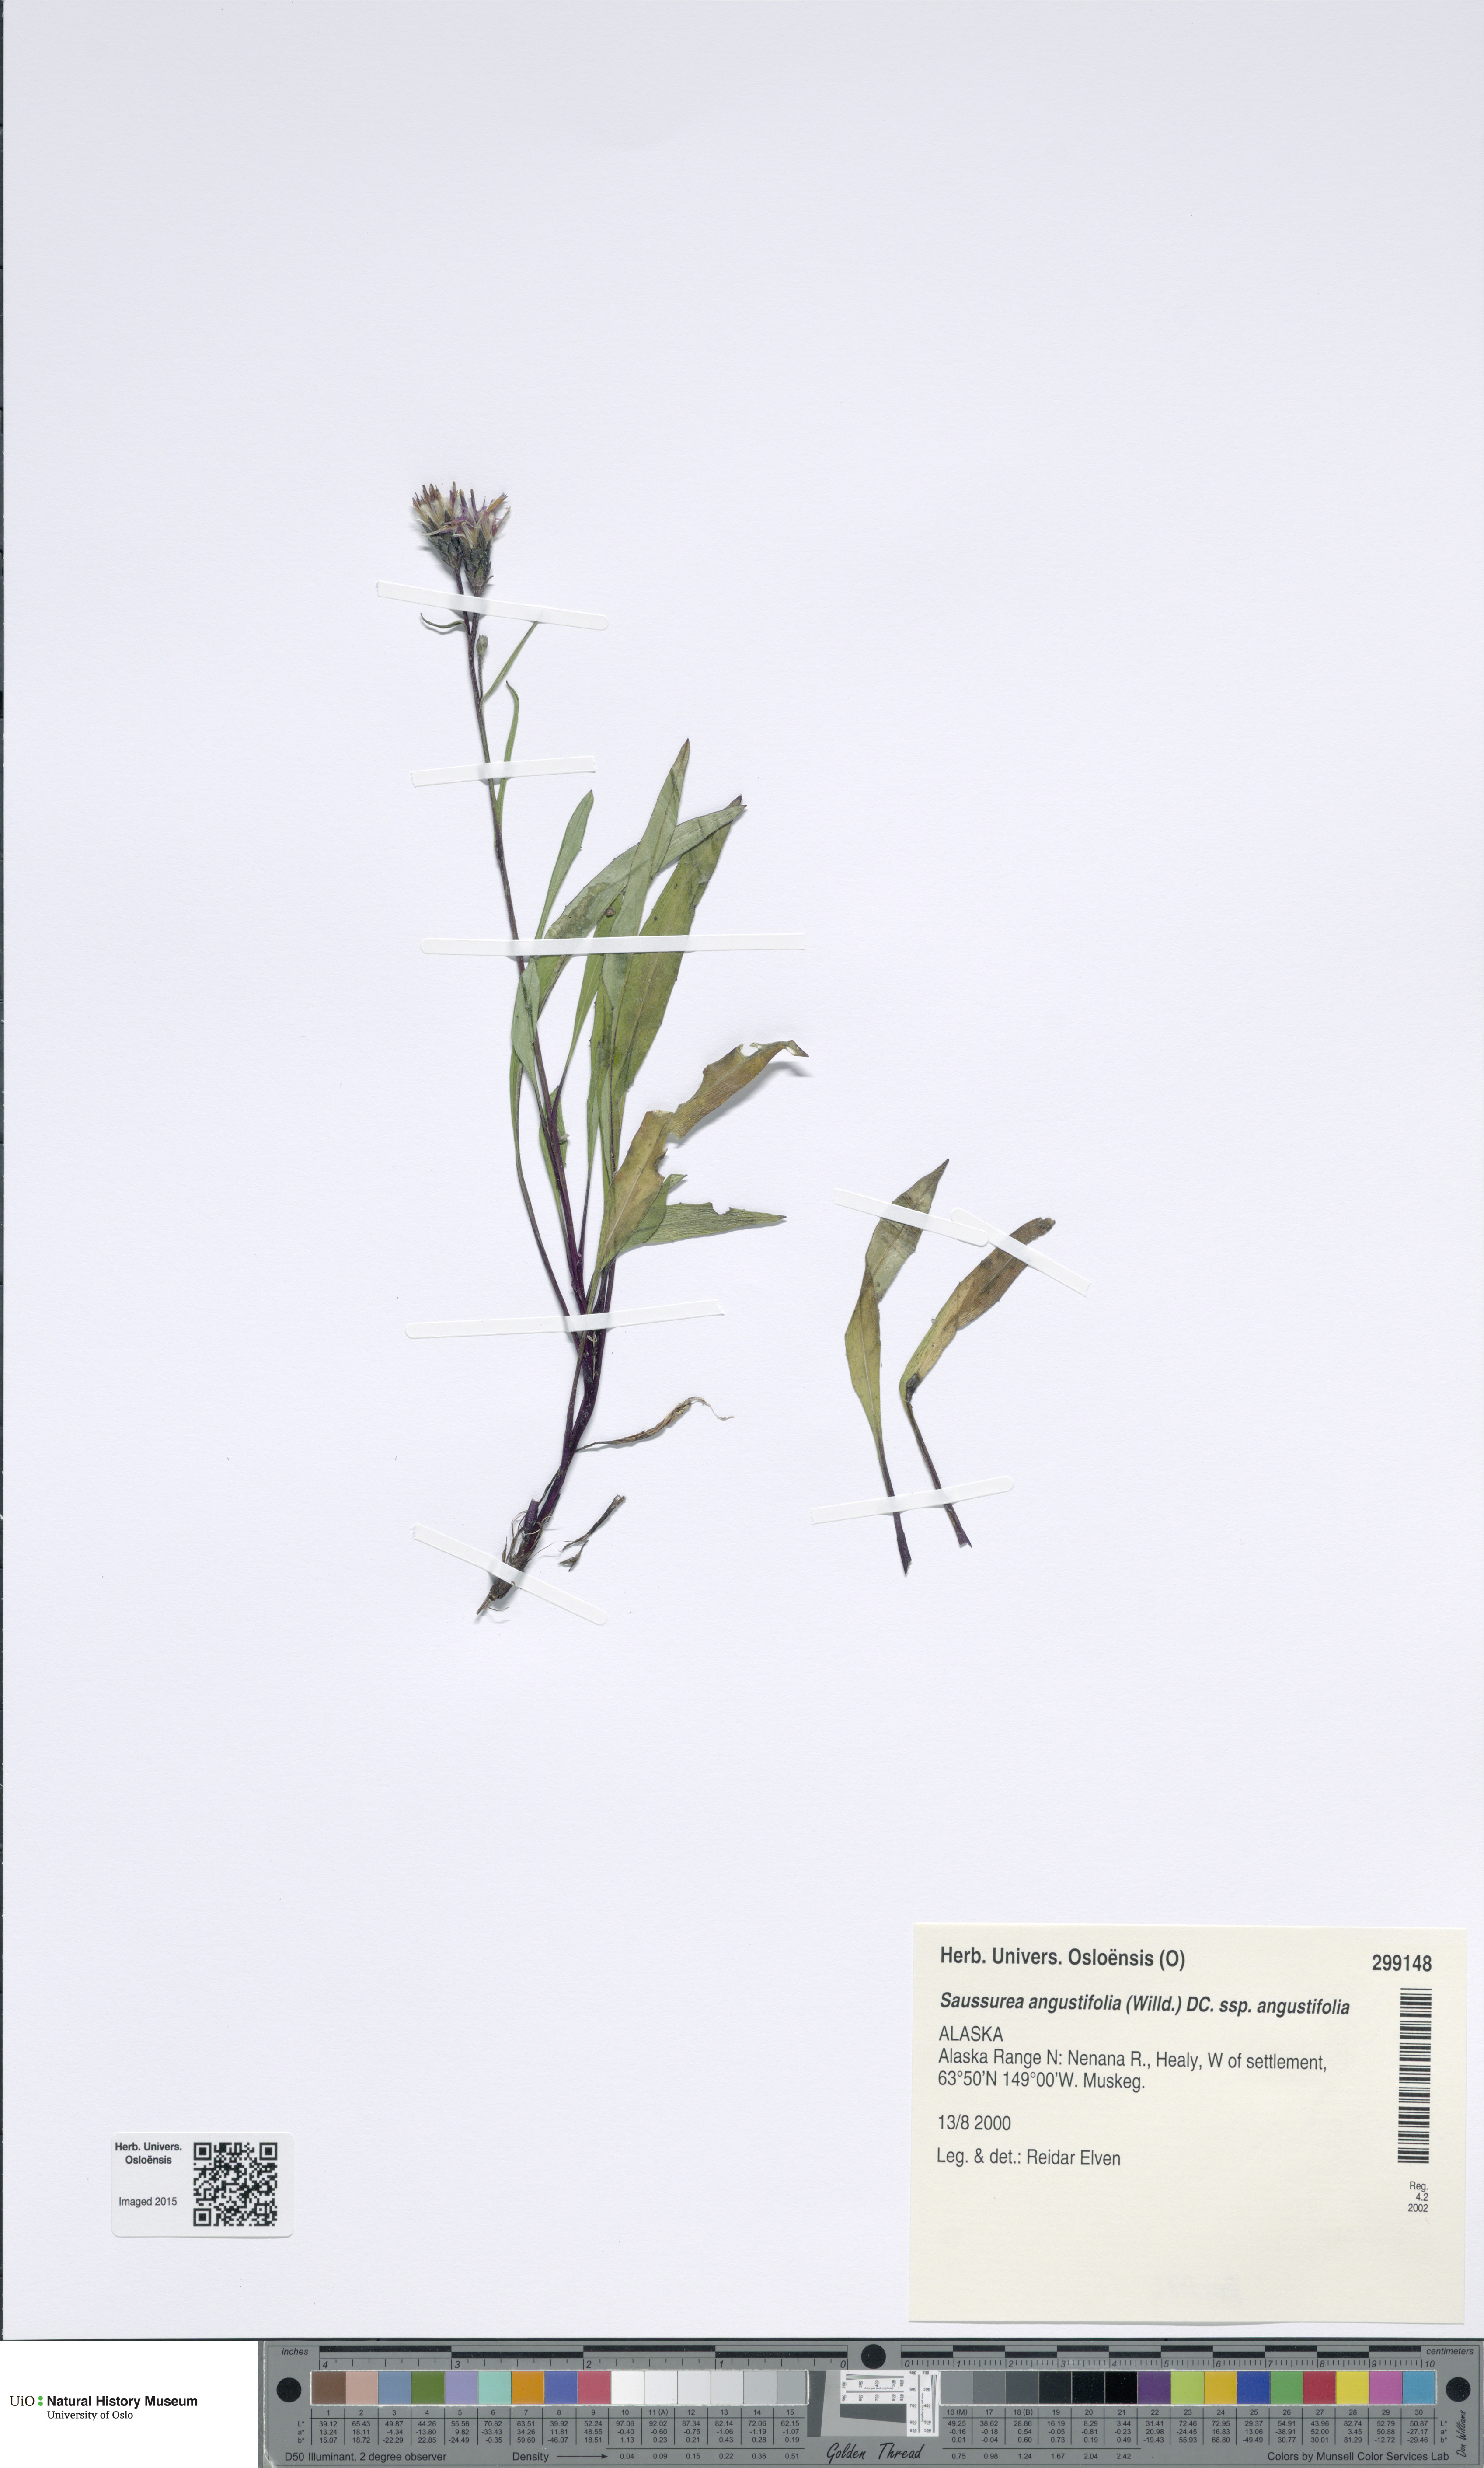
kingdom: Plantae
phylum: Tracheophyta
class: Magnoliopsida
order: Asterales
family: Asteraceae
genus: Saussurea
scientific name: Saussurea angustifolia
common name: Common saussurea
